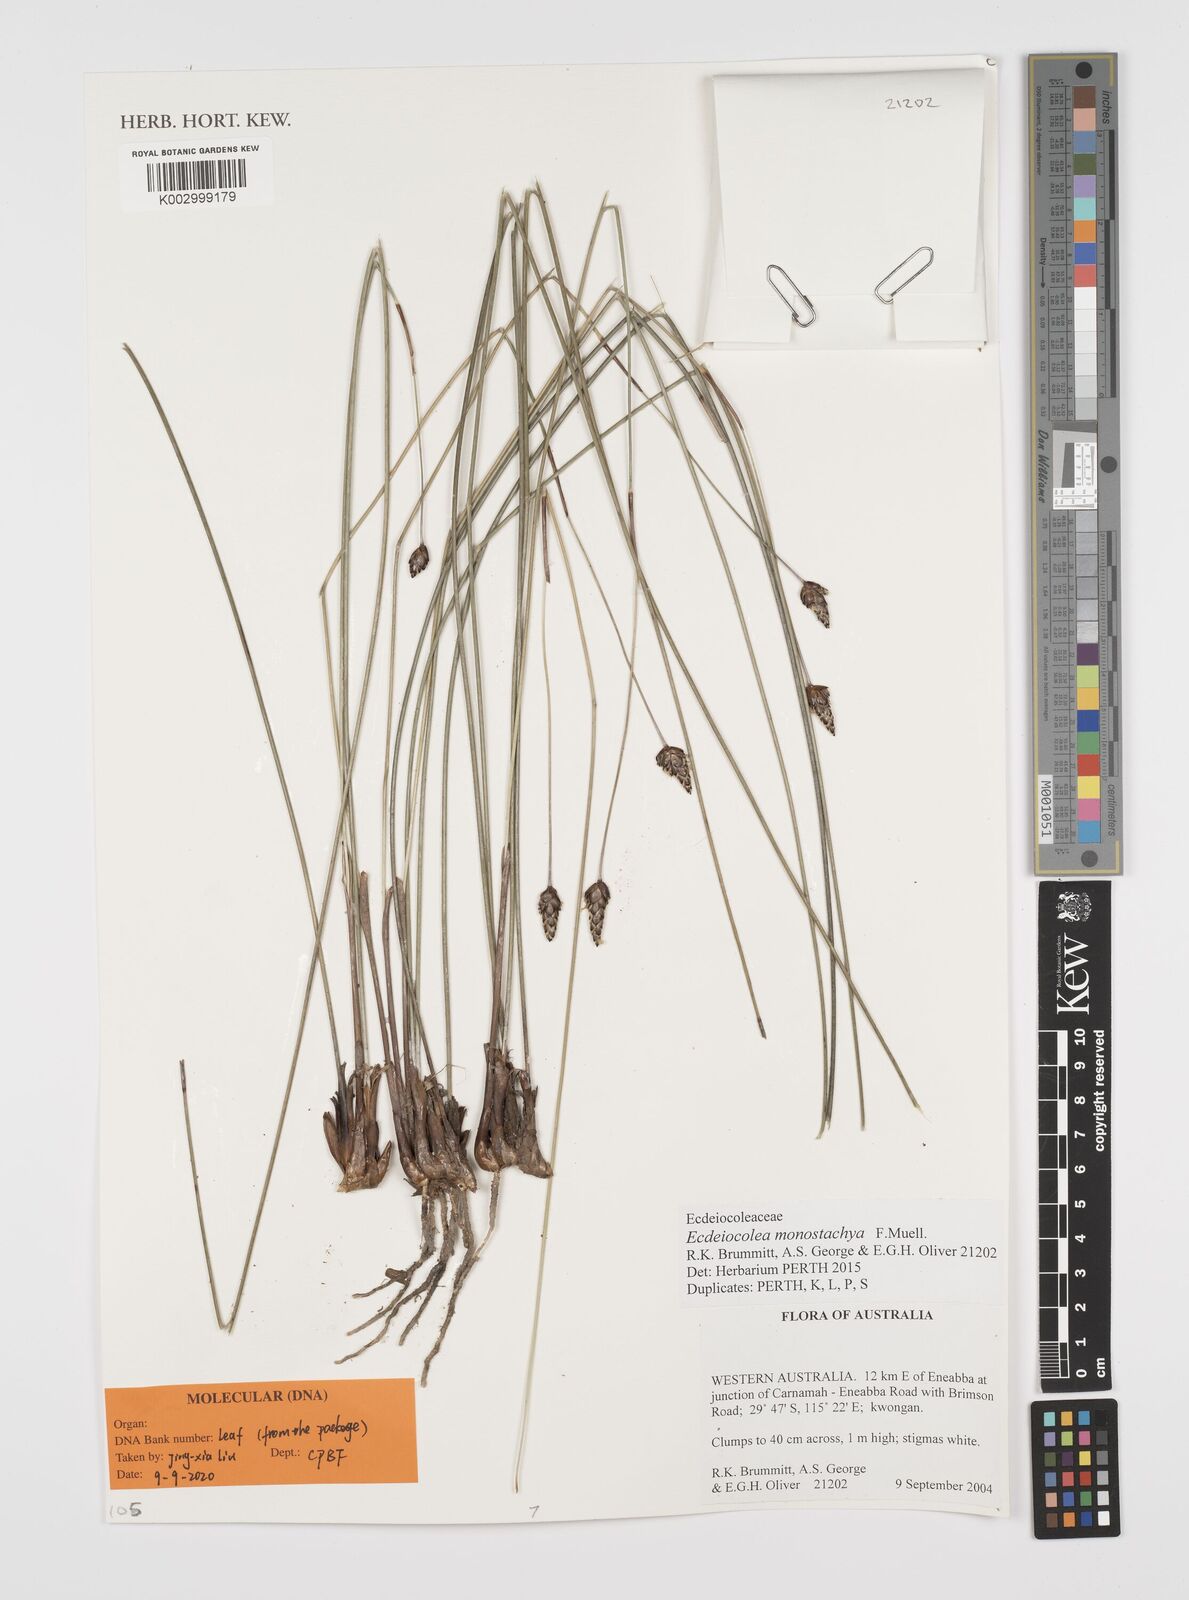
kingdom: Plantae
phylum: Tracheophyta
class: Liliopsida
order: Poales
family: Ecdeiocoleaceae
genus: Ecdeiocolea
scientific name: Ecdeiocolea monostachya
